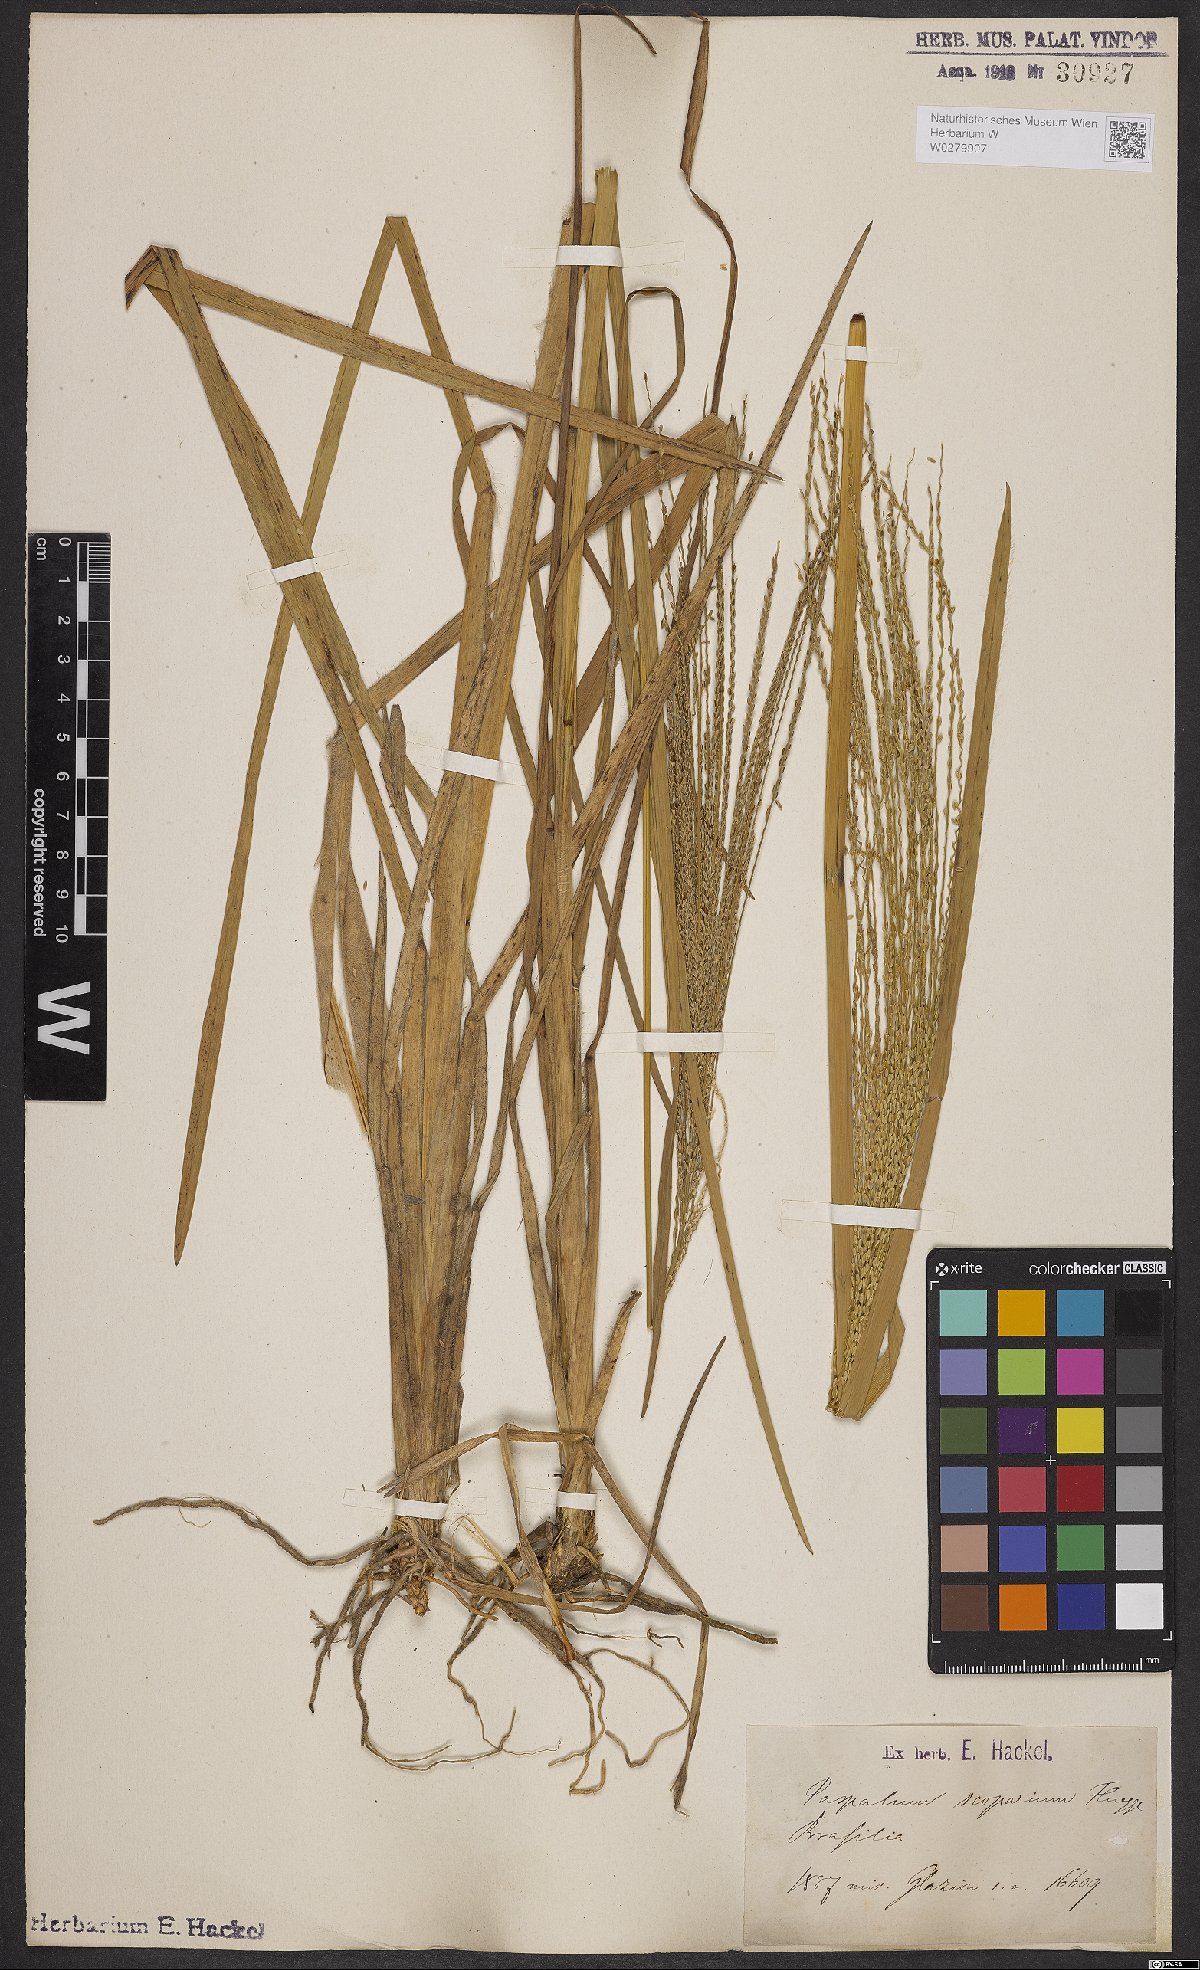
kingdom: Plantae
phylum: Tracheophyta
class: Liliopsida
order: Poales
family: Poaceae
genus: Axonopus
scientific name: Axonopus scoparius
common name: Imperial grass
